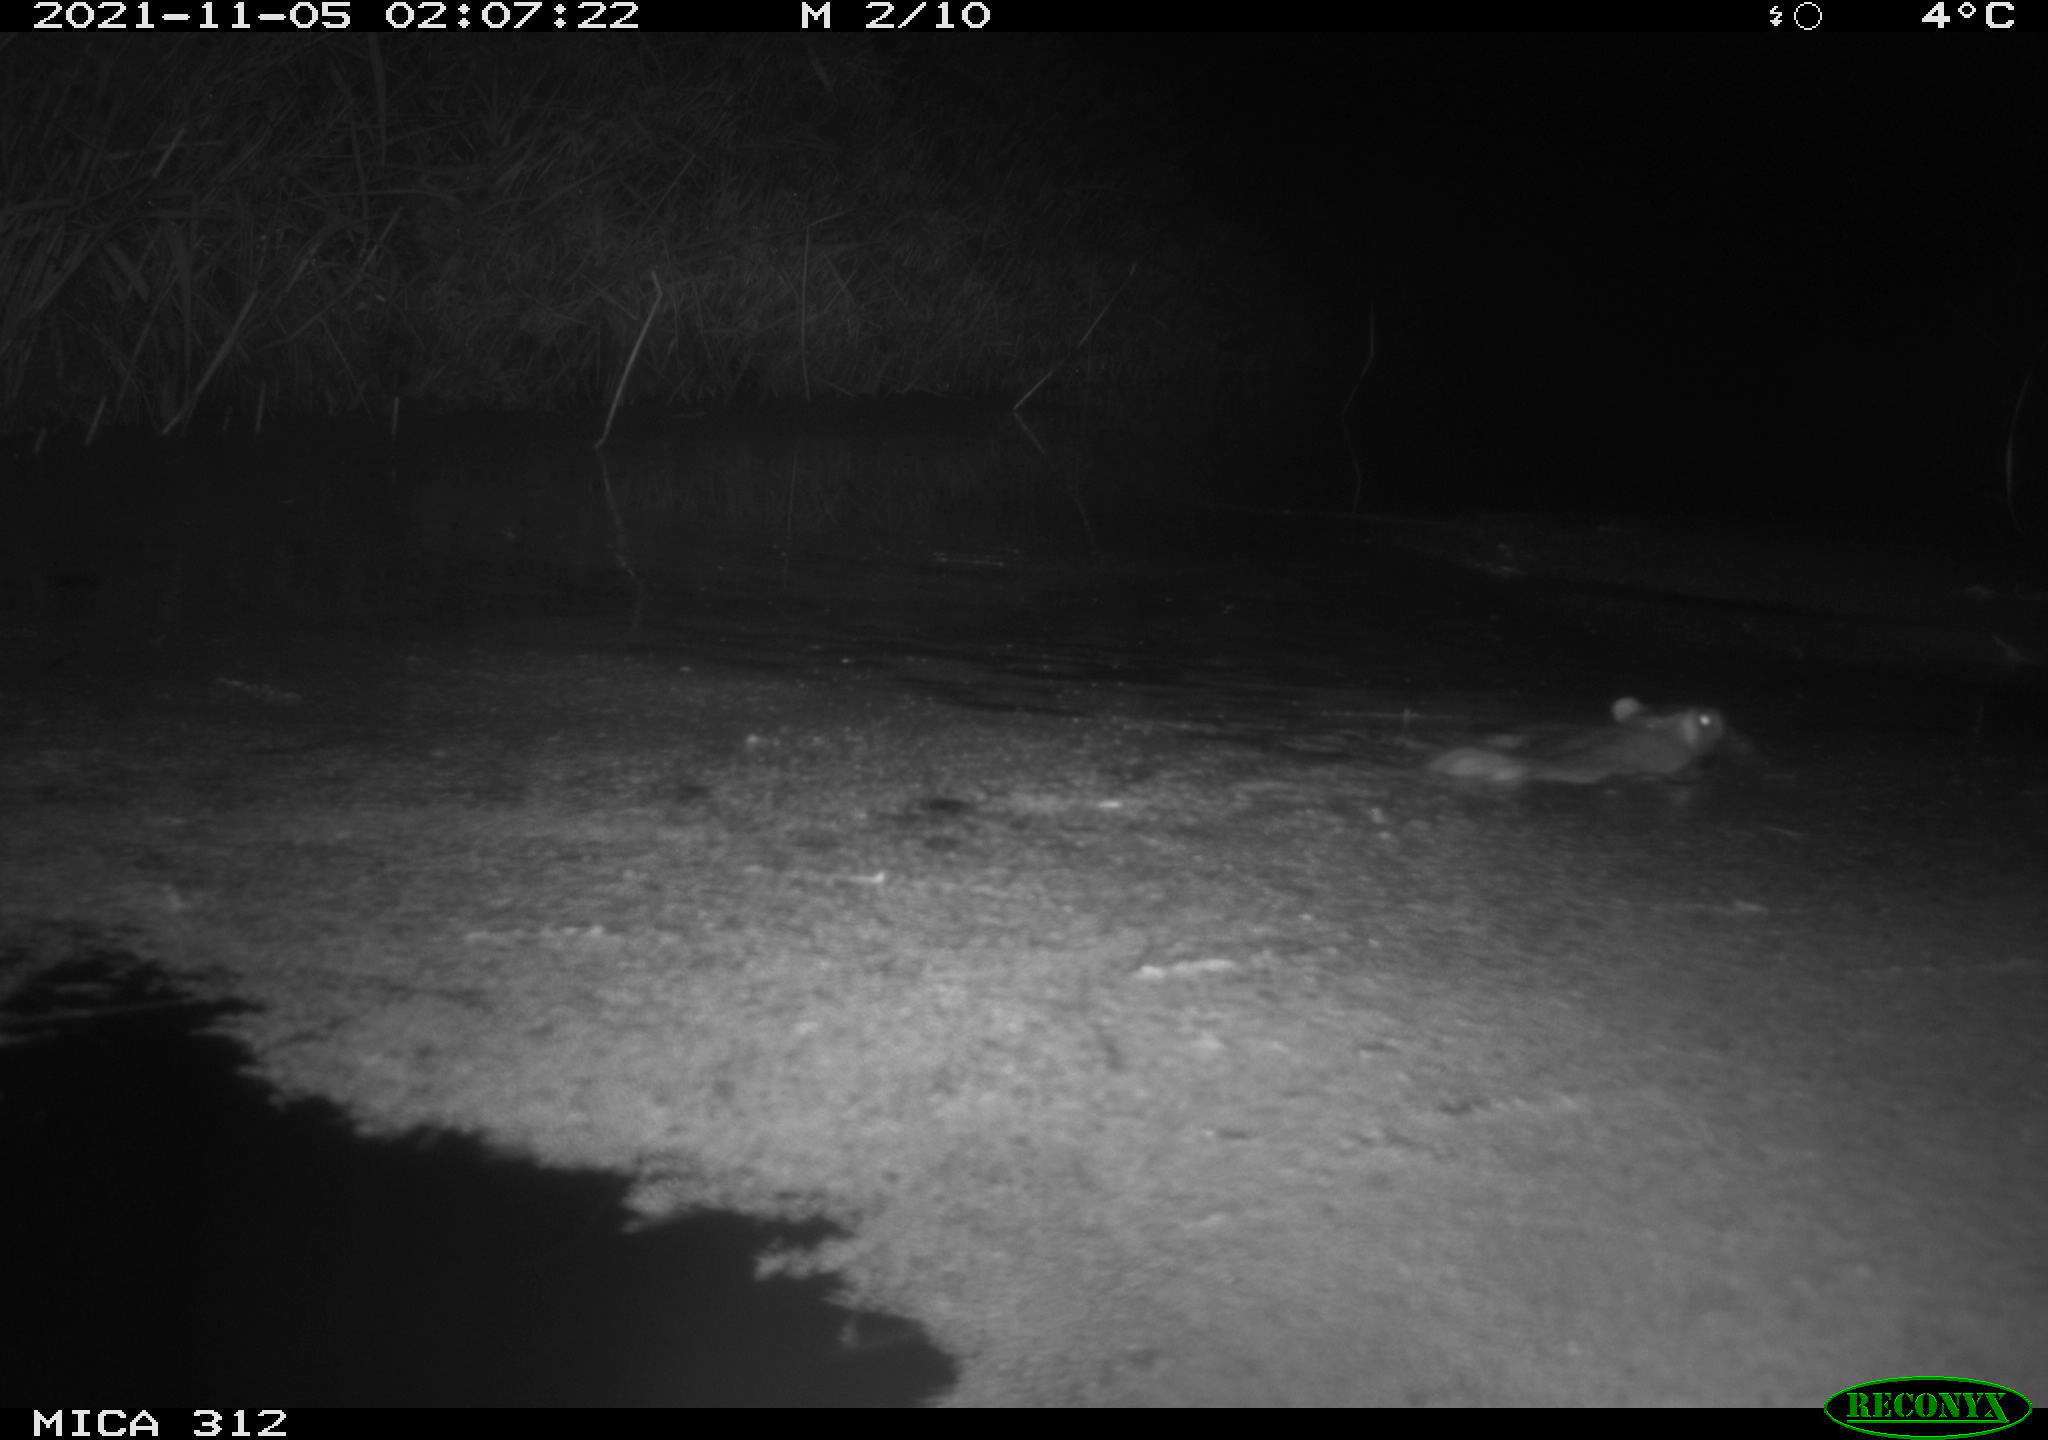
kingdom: Animalia
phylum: Chordata
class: Mammalia
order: Rodentia
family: Muridae
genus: Rattus
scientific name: Rattus norvegicus
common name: Brown rat
